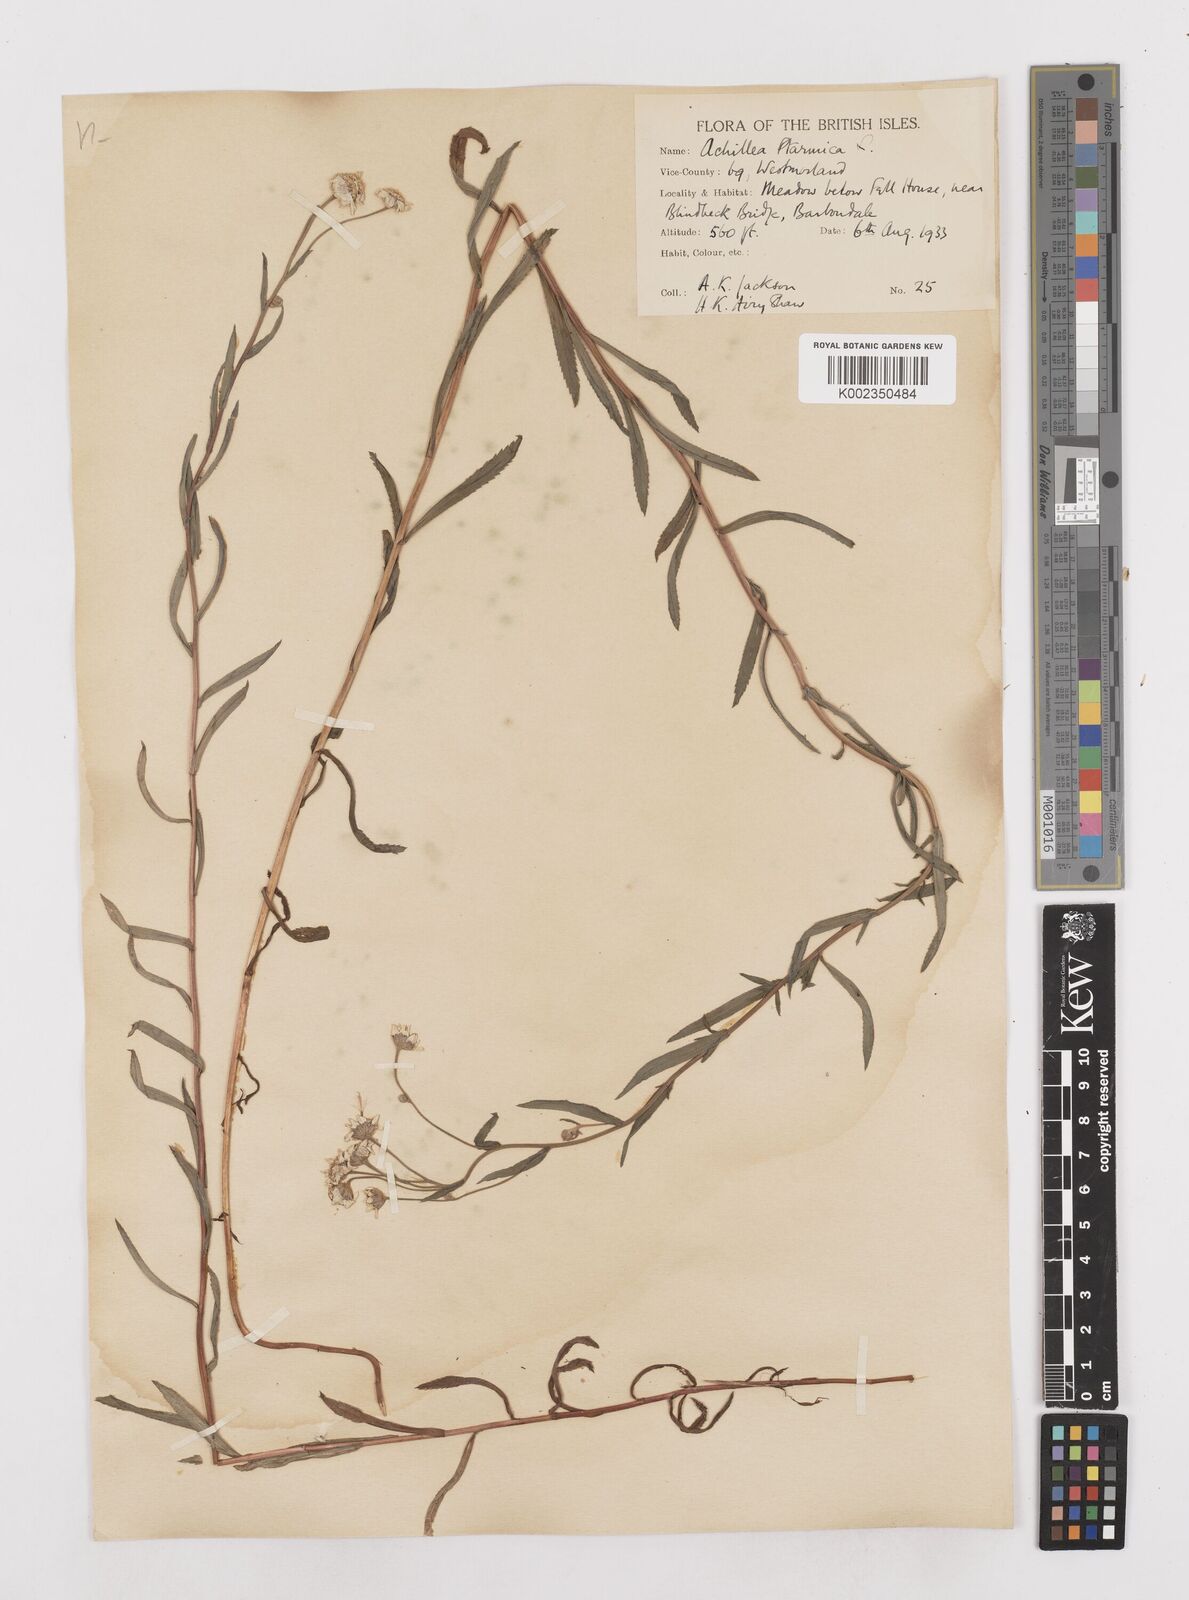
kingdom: Plantae
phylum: Tracheophyta
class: Magnoliopsida
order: Asterales
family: Asteraceae
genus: Achillea
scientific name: Achillea ptarmica
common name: Sneezeweed
